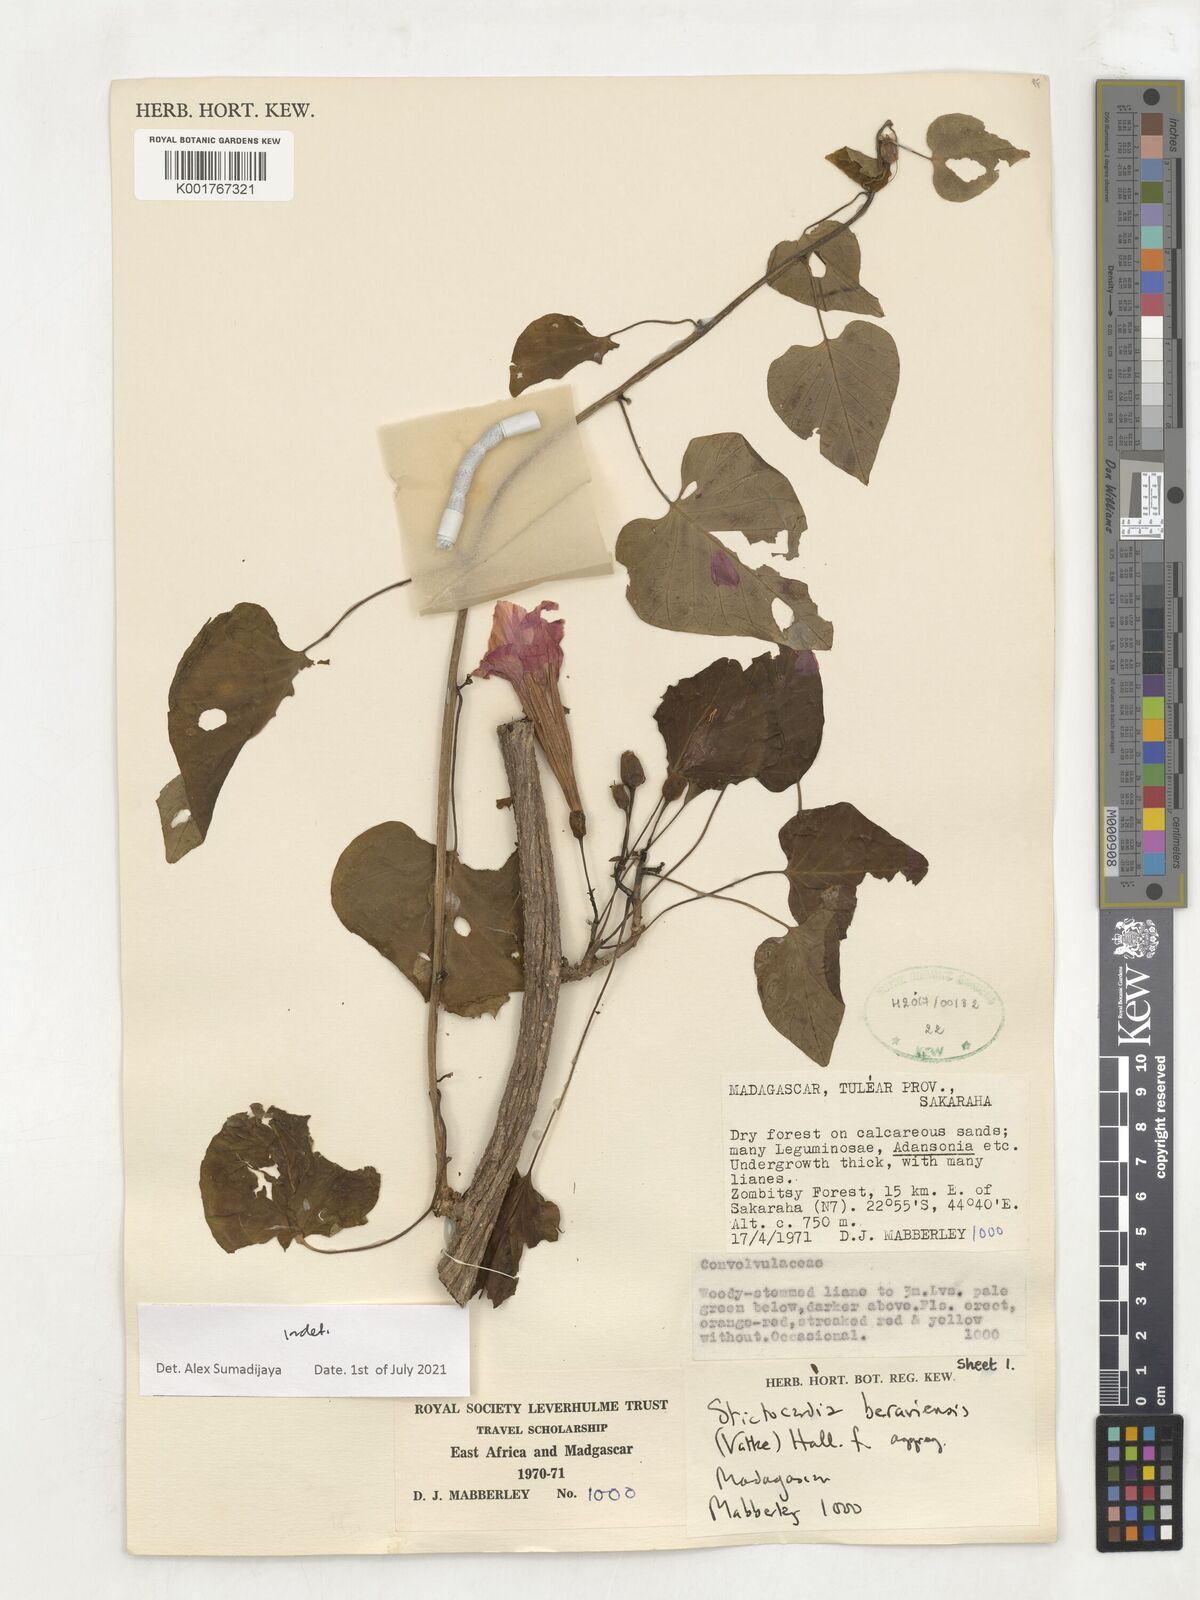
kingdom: Plantae
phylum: Tracheophyta
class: Magnoliopsida
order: Solanales
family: Convolvulaceae
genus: Stictocardia
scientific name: Stictocardia beraviensis
